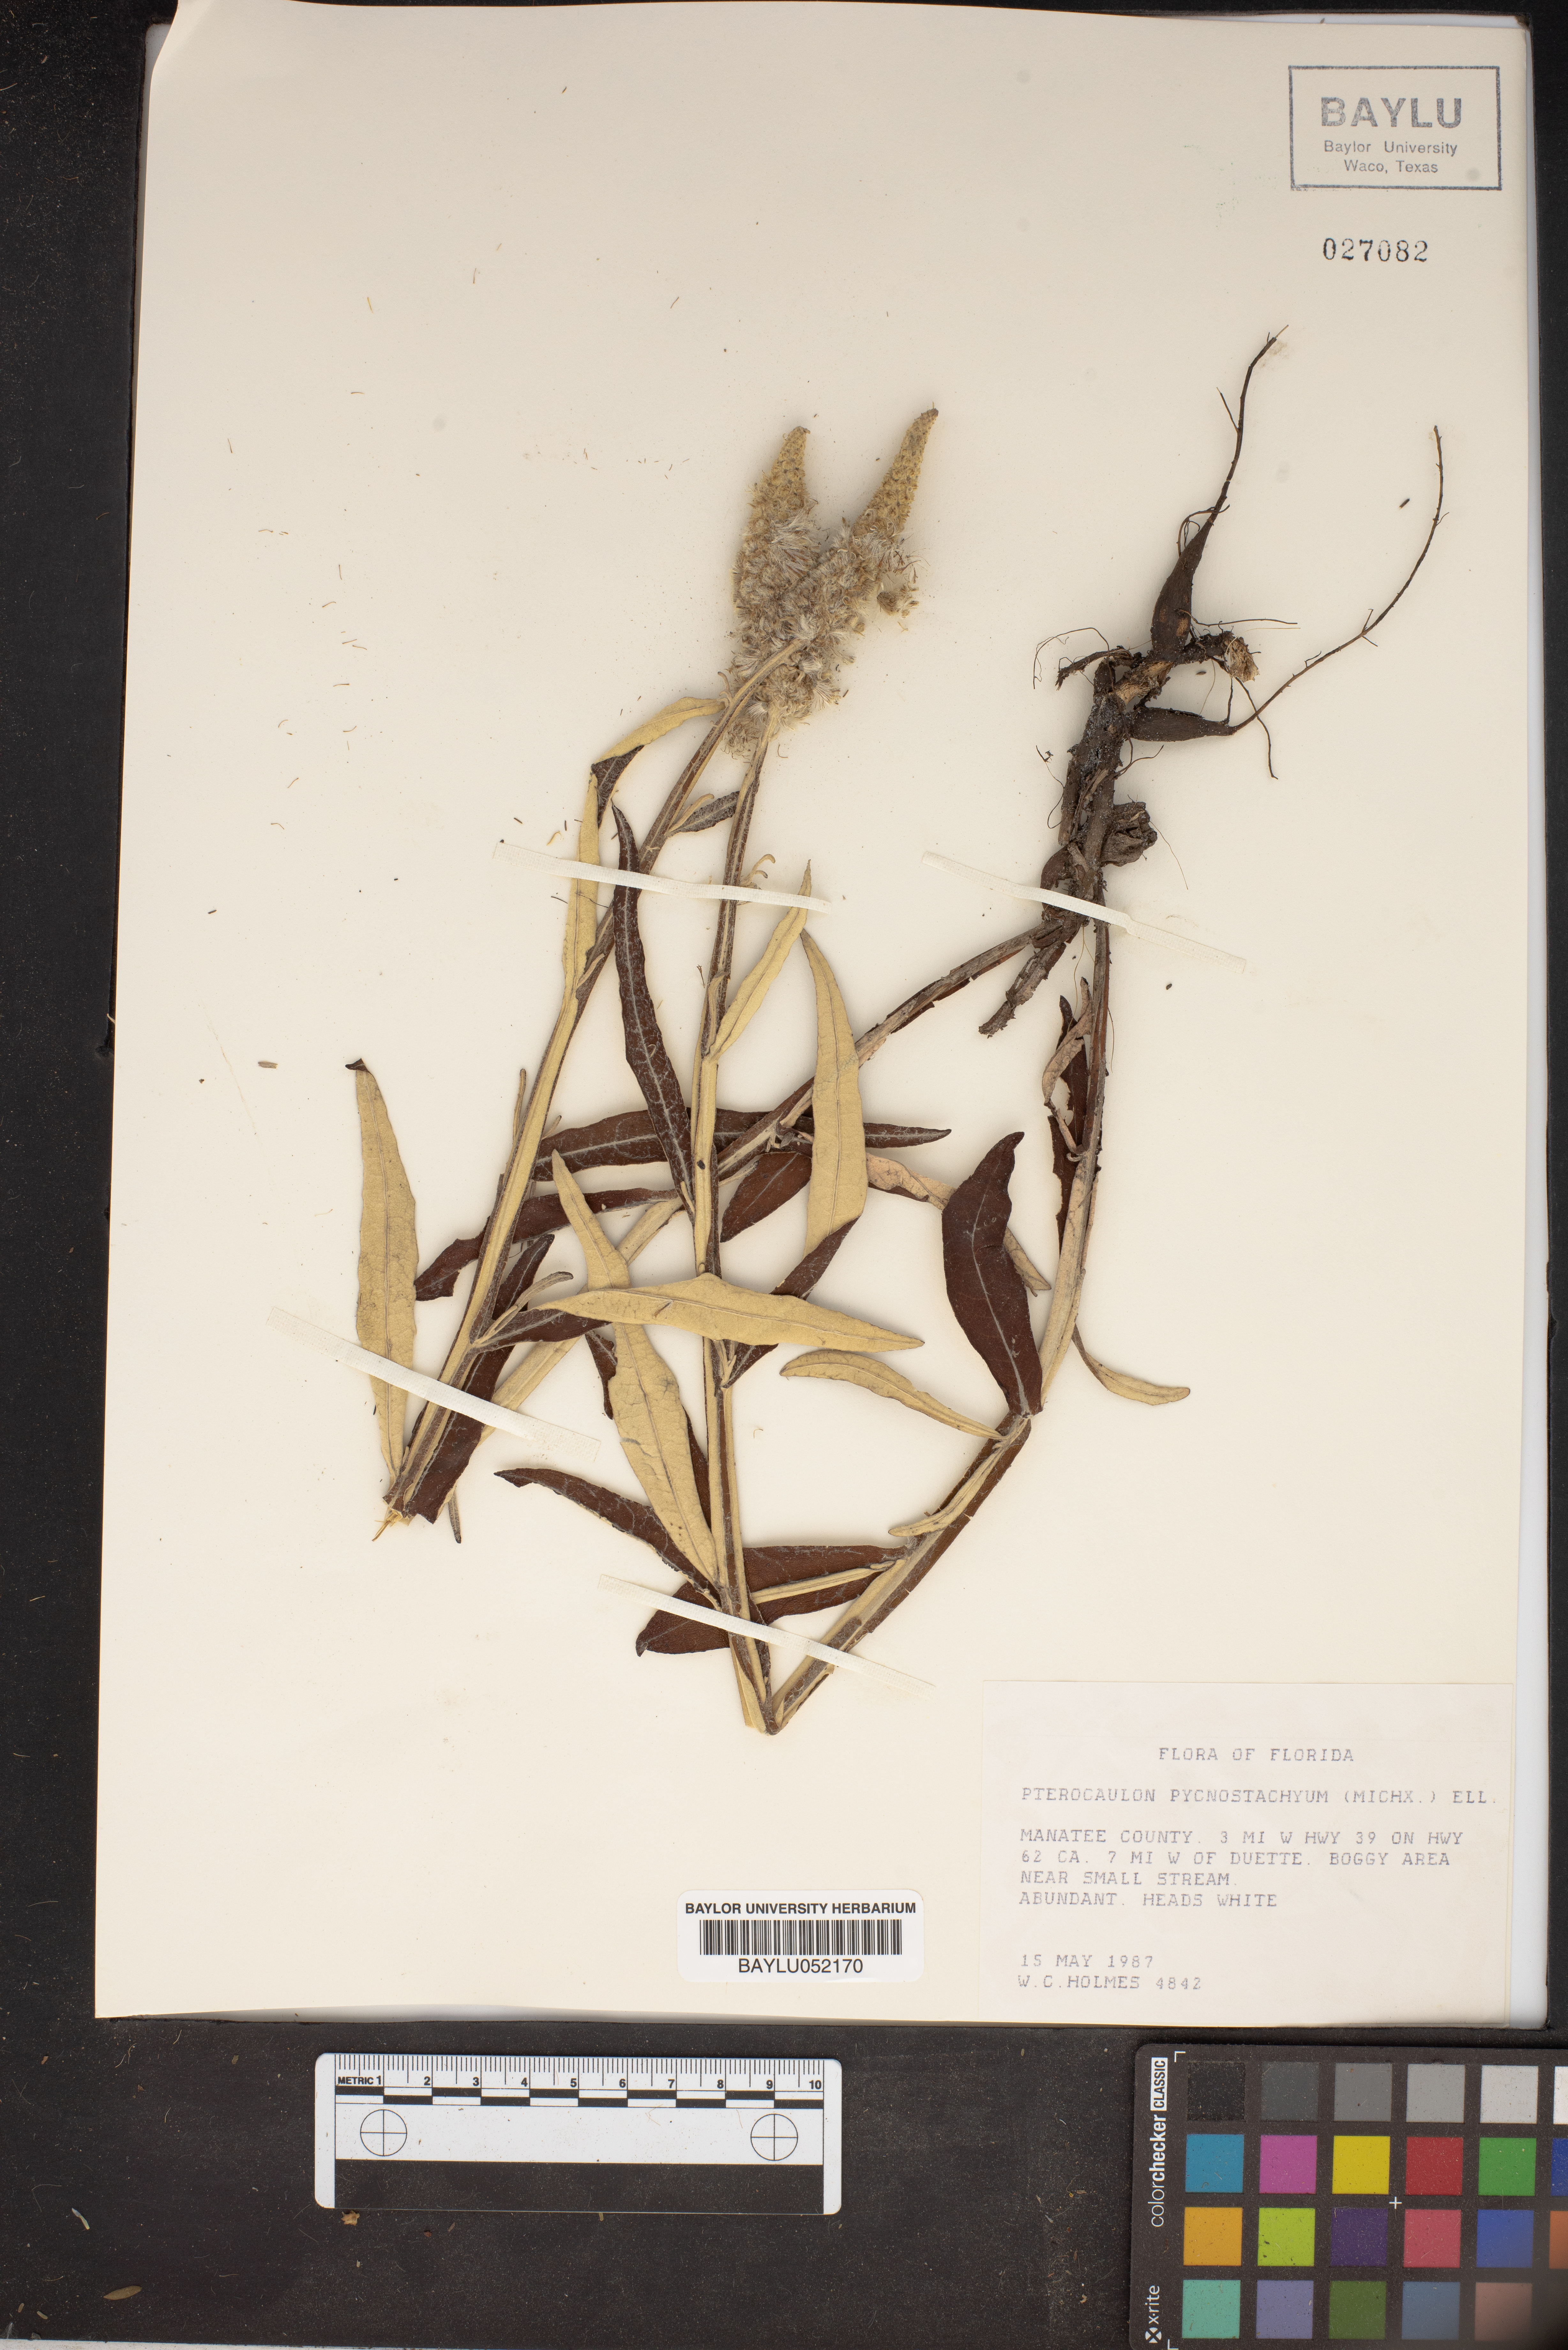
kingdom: Plantae
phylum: Tracheophyta
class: Magnoliopsida
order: Asterales
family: Asteraceae
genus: Pterocaulon
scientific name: Pterocaulon pycnostachyum
